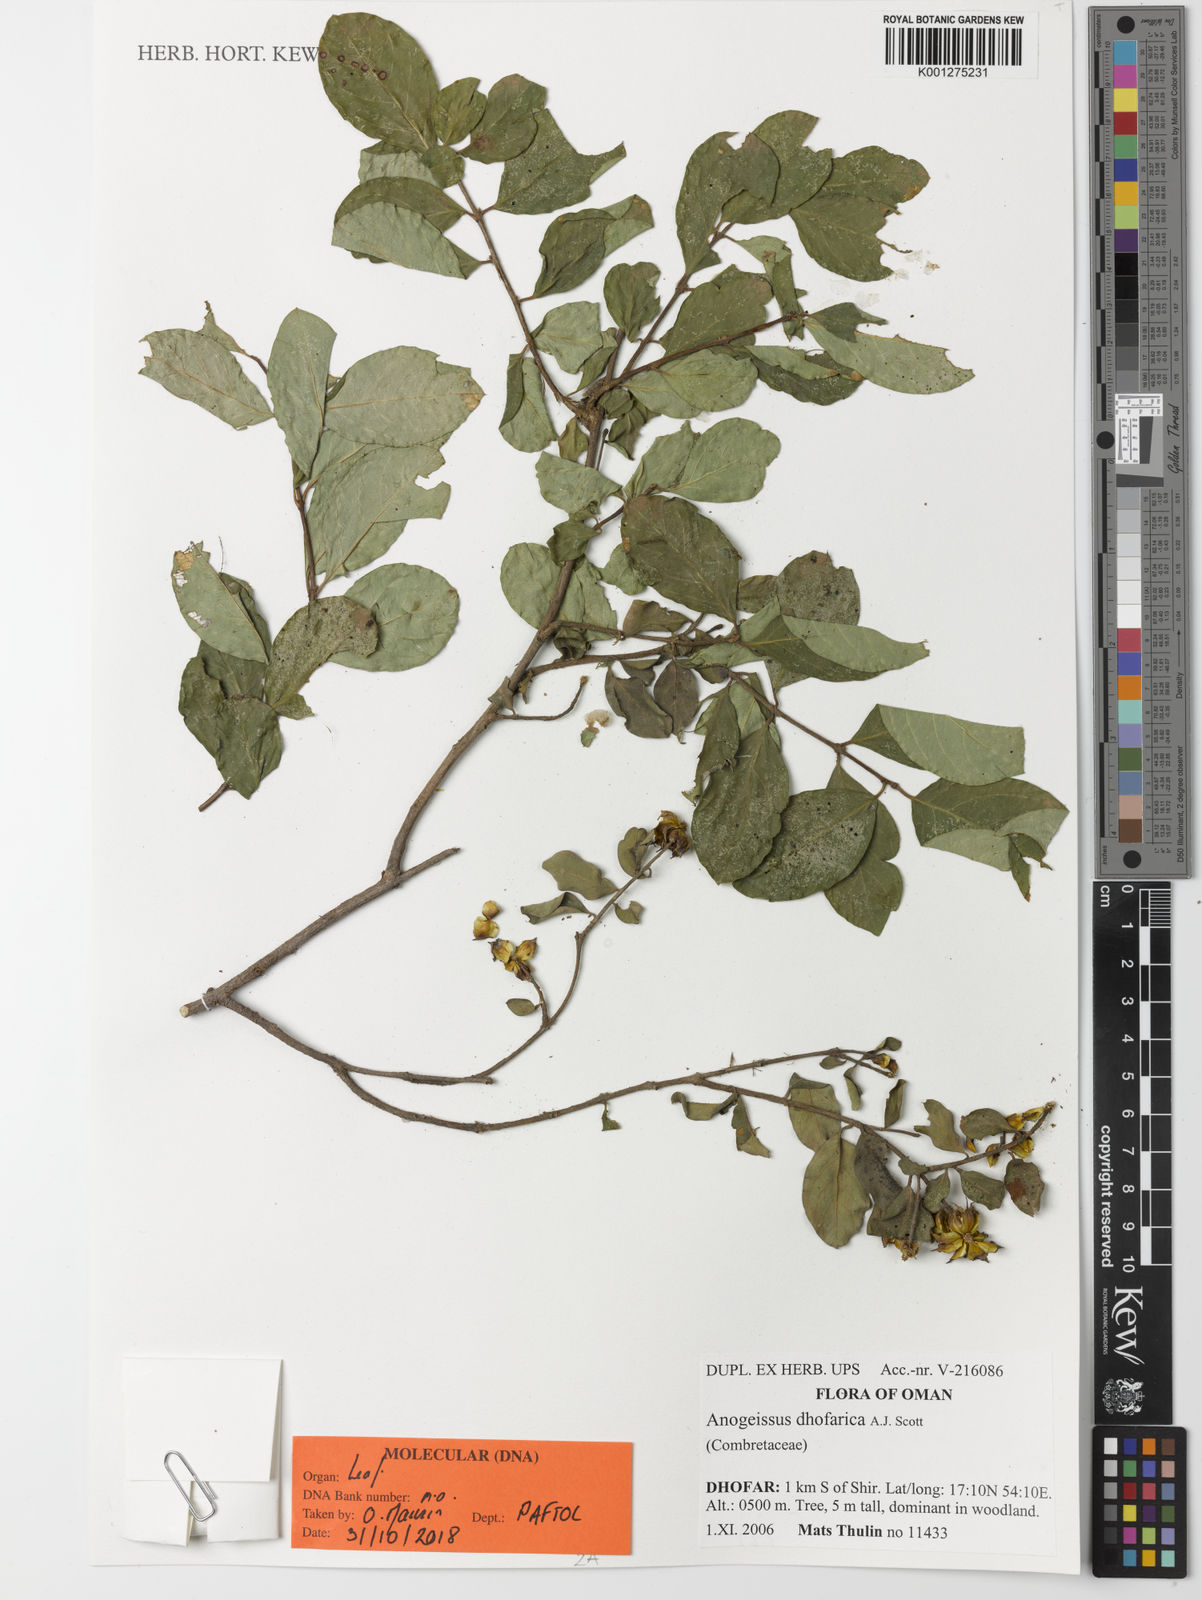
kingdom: Plantae
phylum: Tracheophyta
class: Magnoliopsida
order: Myrtales
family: Combretaceae
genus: Terminalia
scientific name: Terminalia dhofarica
